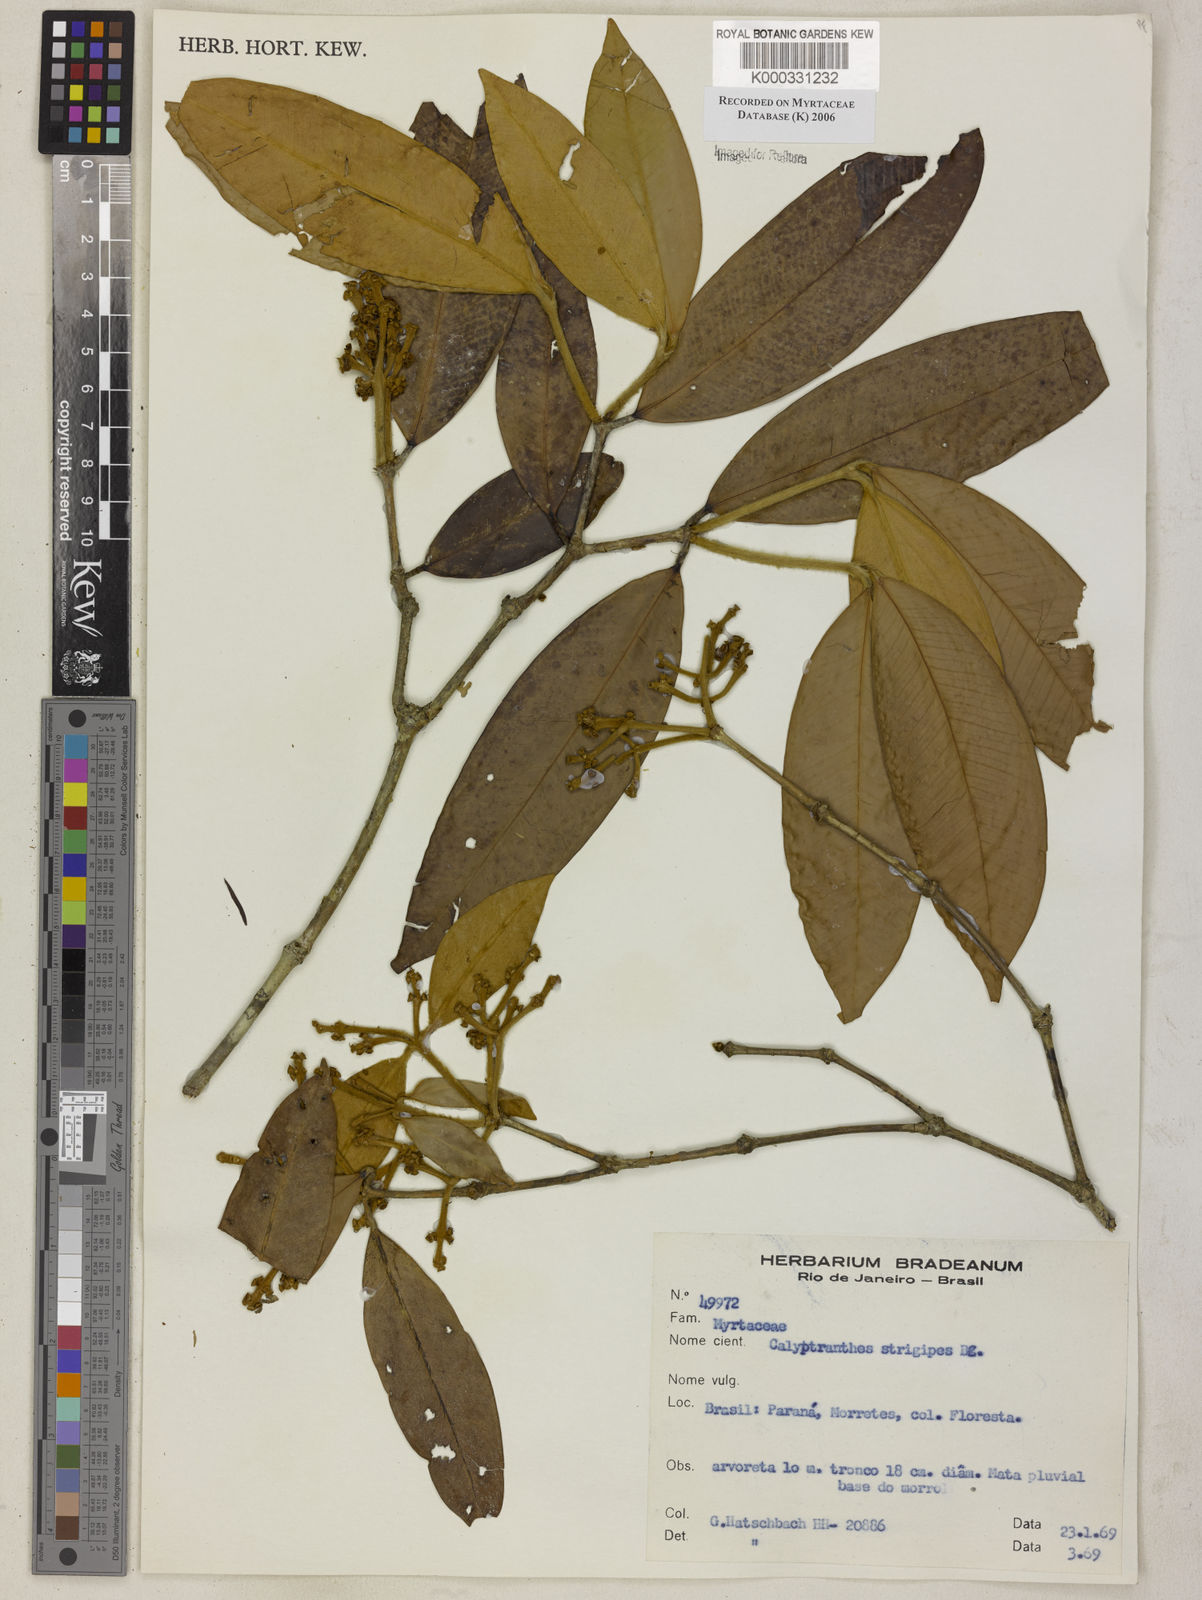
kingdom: Plantae
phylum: Tracheophyta
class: Magnoliopsida
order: Myrtales
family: Myrtaceae
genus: Myrcia
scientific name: Myrcia strigosa
